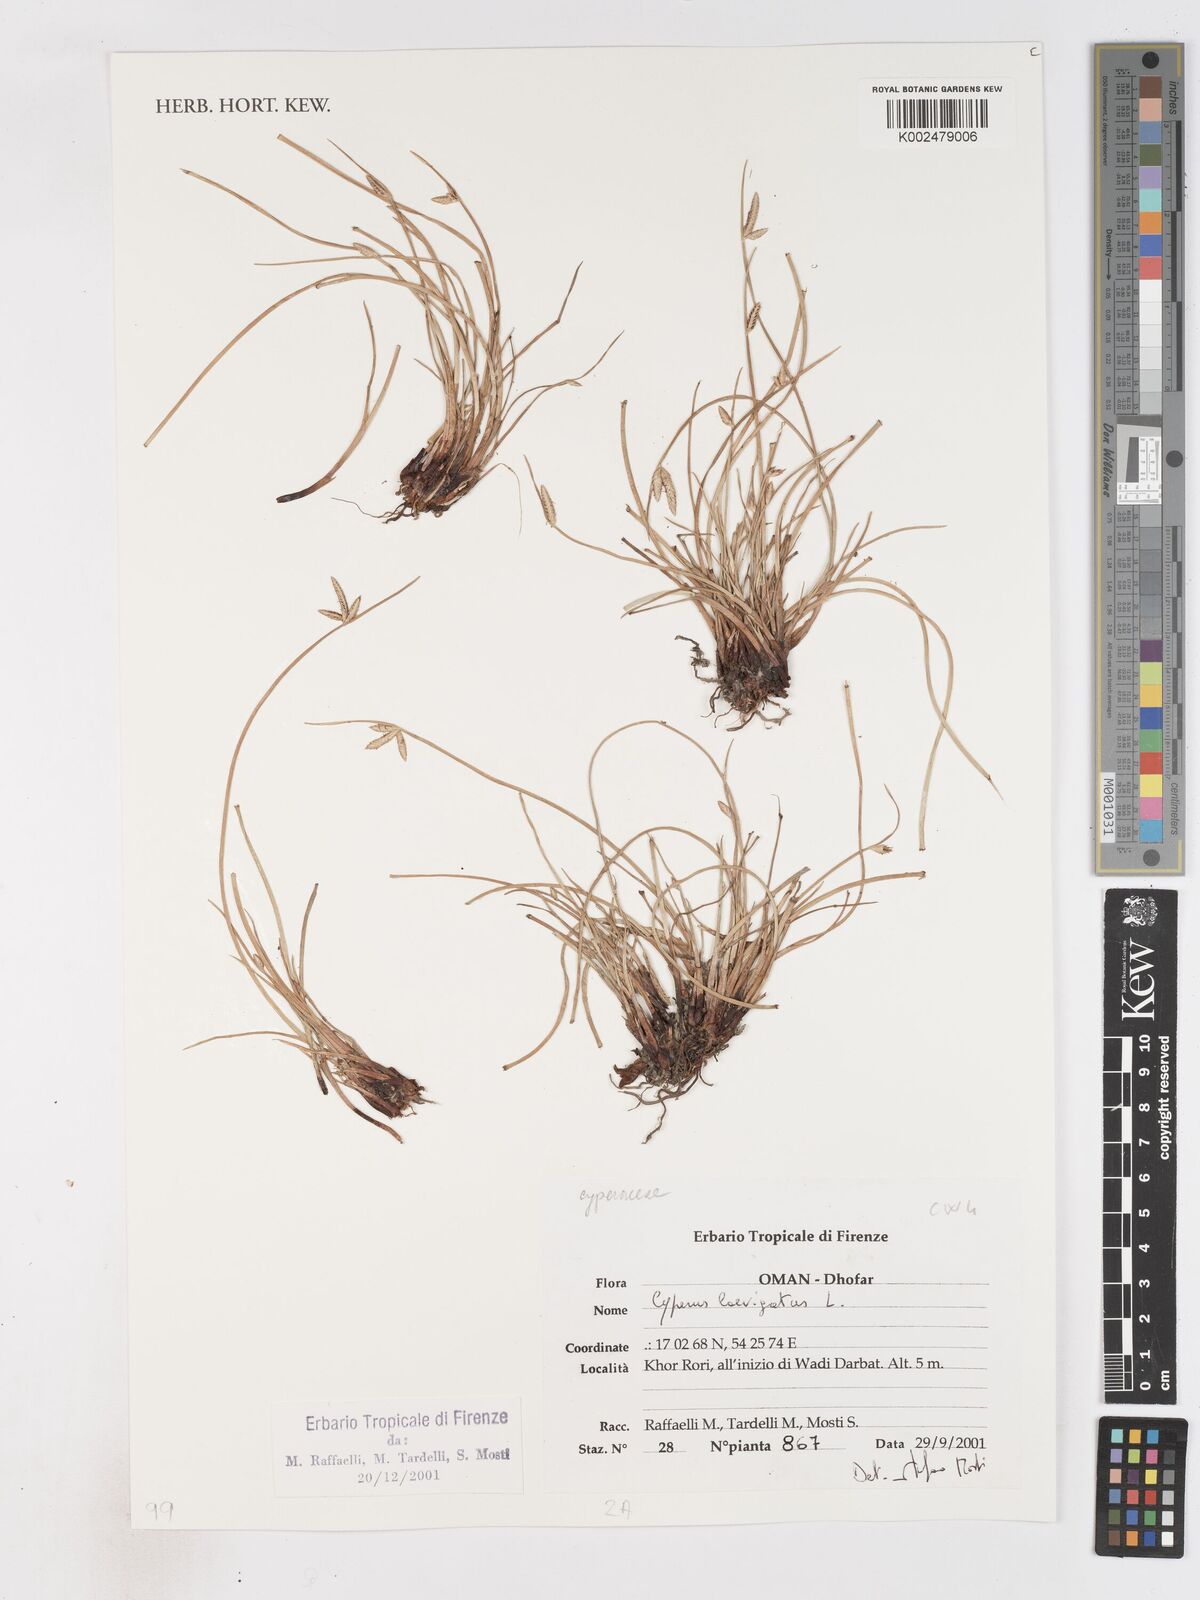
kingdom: Plantae
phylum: Tracheophyta
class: Liliopsida
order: Poales
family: Cyperaceae
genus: Cyperus
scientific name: Cyperus laevigatus
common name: Smooth flat sedge
